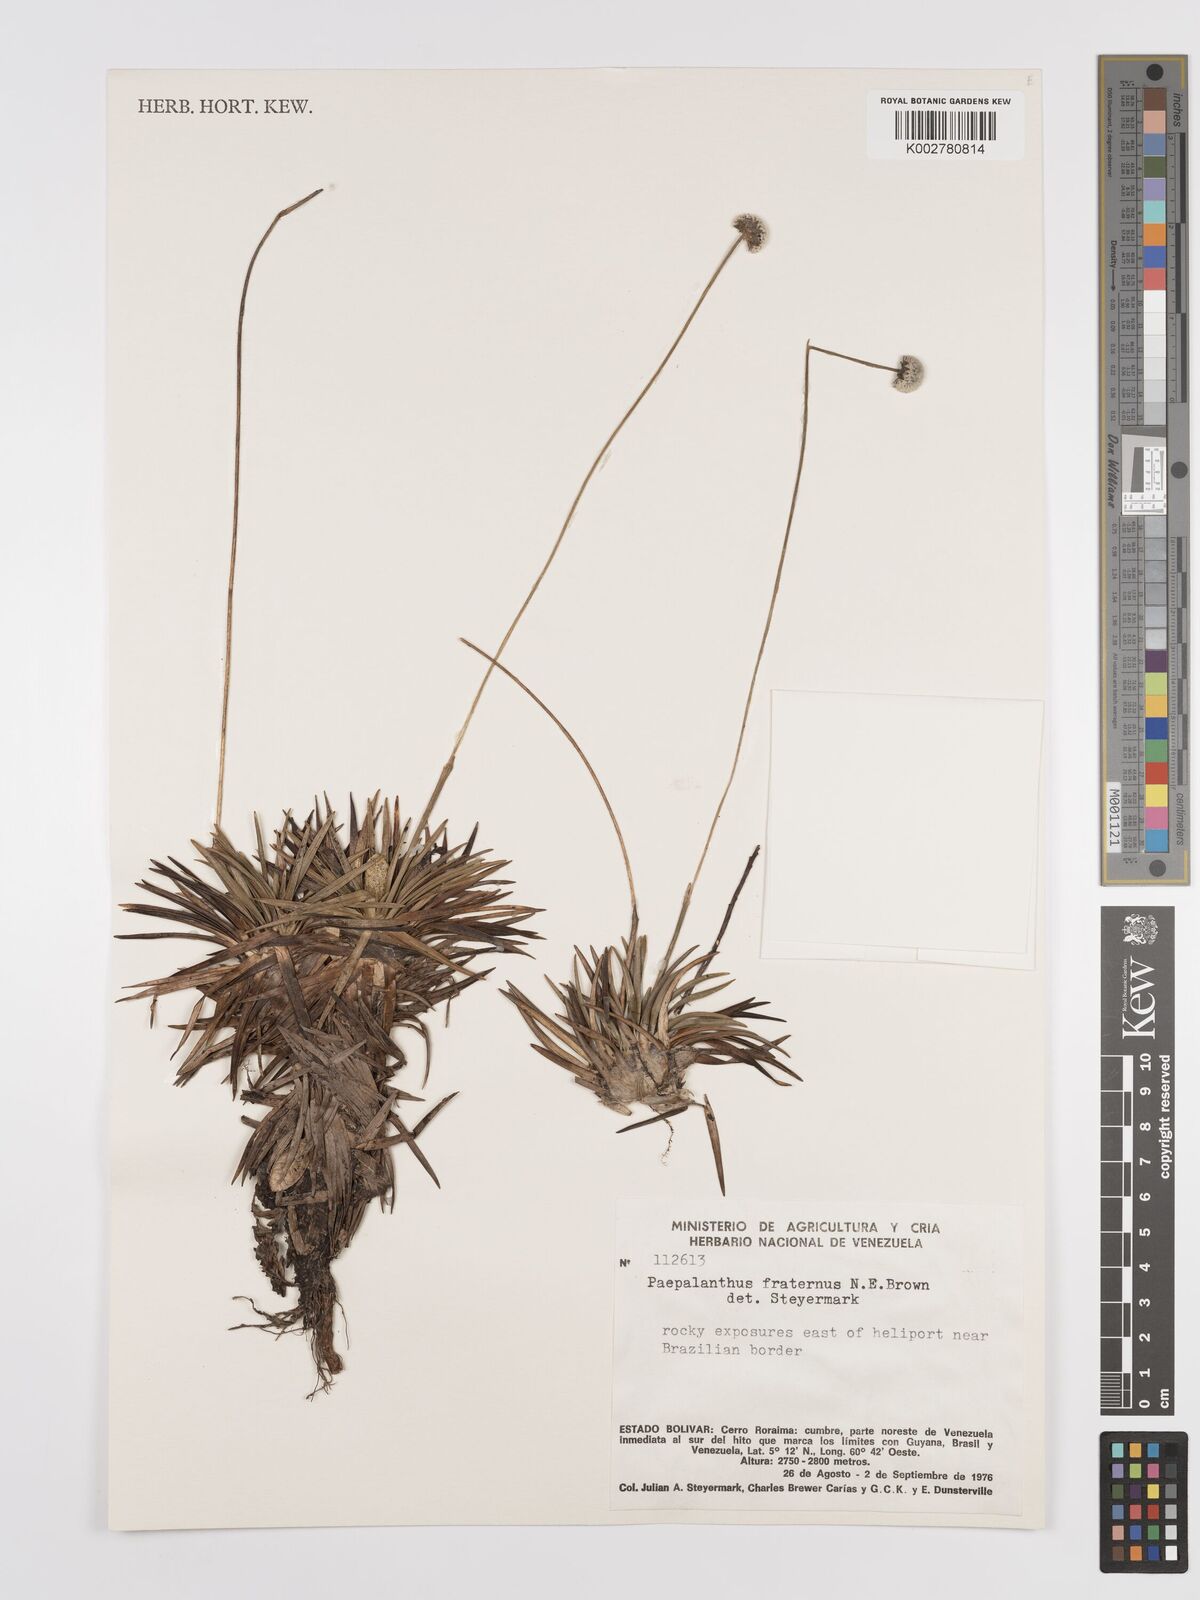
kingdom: Plantae
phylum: Tracheophyta
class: Liliopsida
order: Poales
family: Eriocaulaceae
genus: Paepalanthus
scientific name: Paepalanthus fraternus
